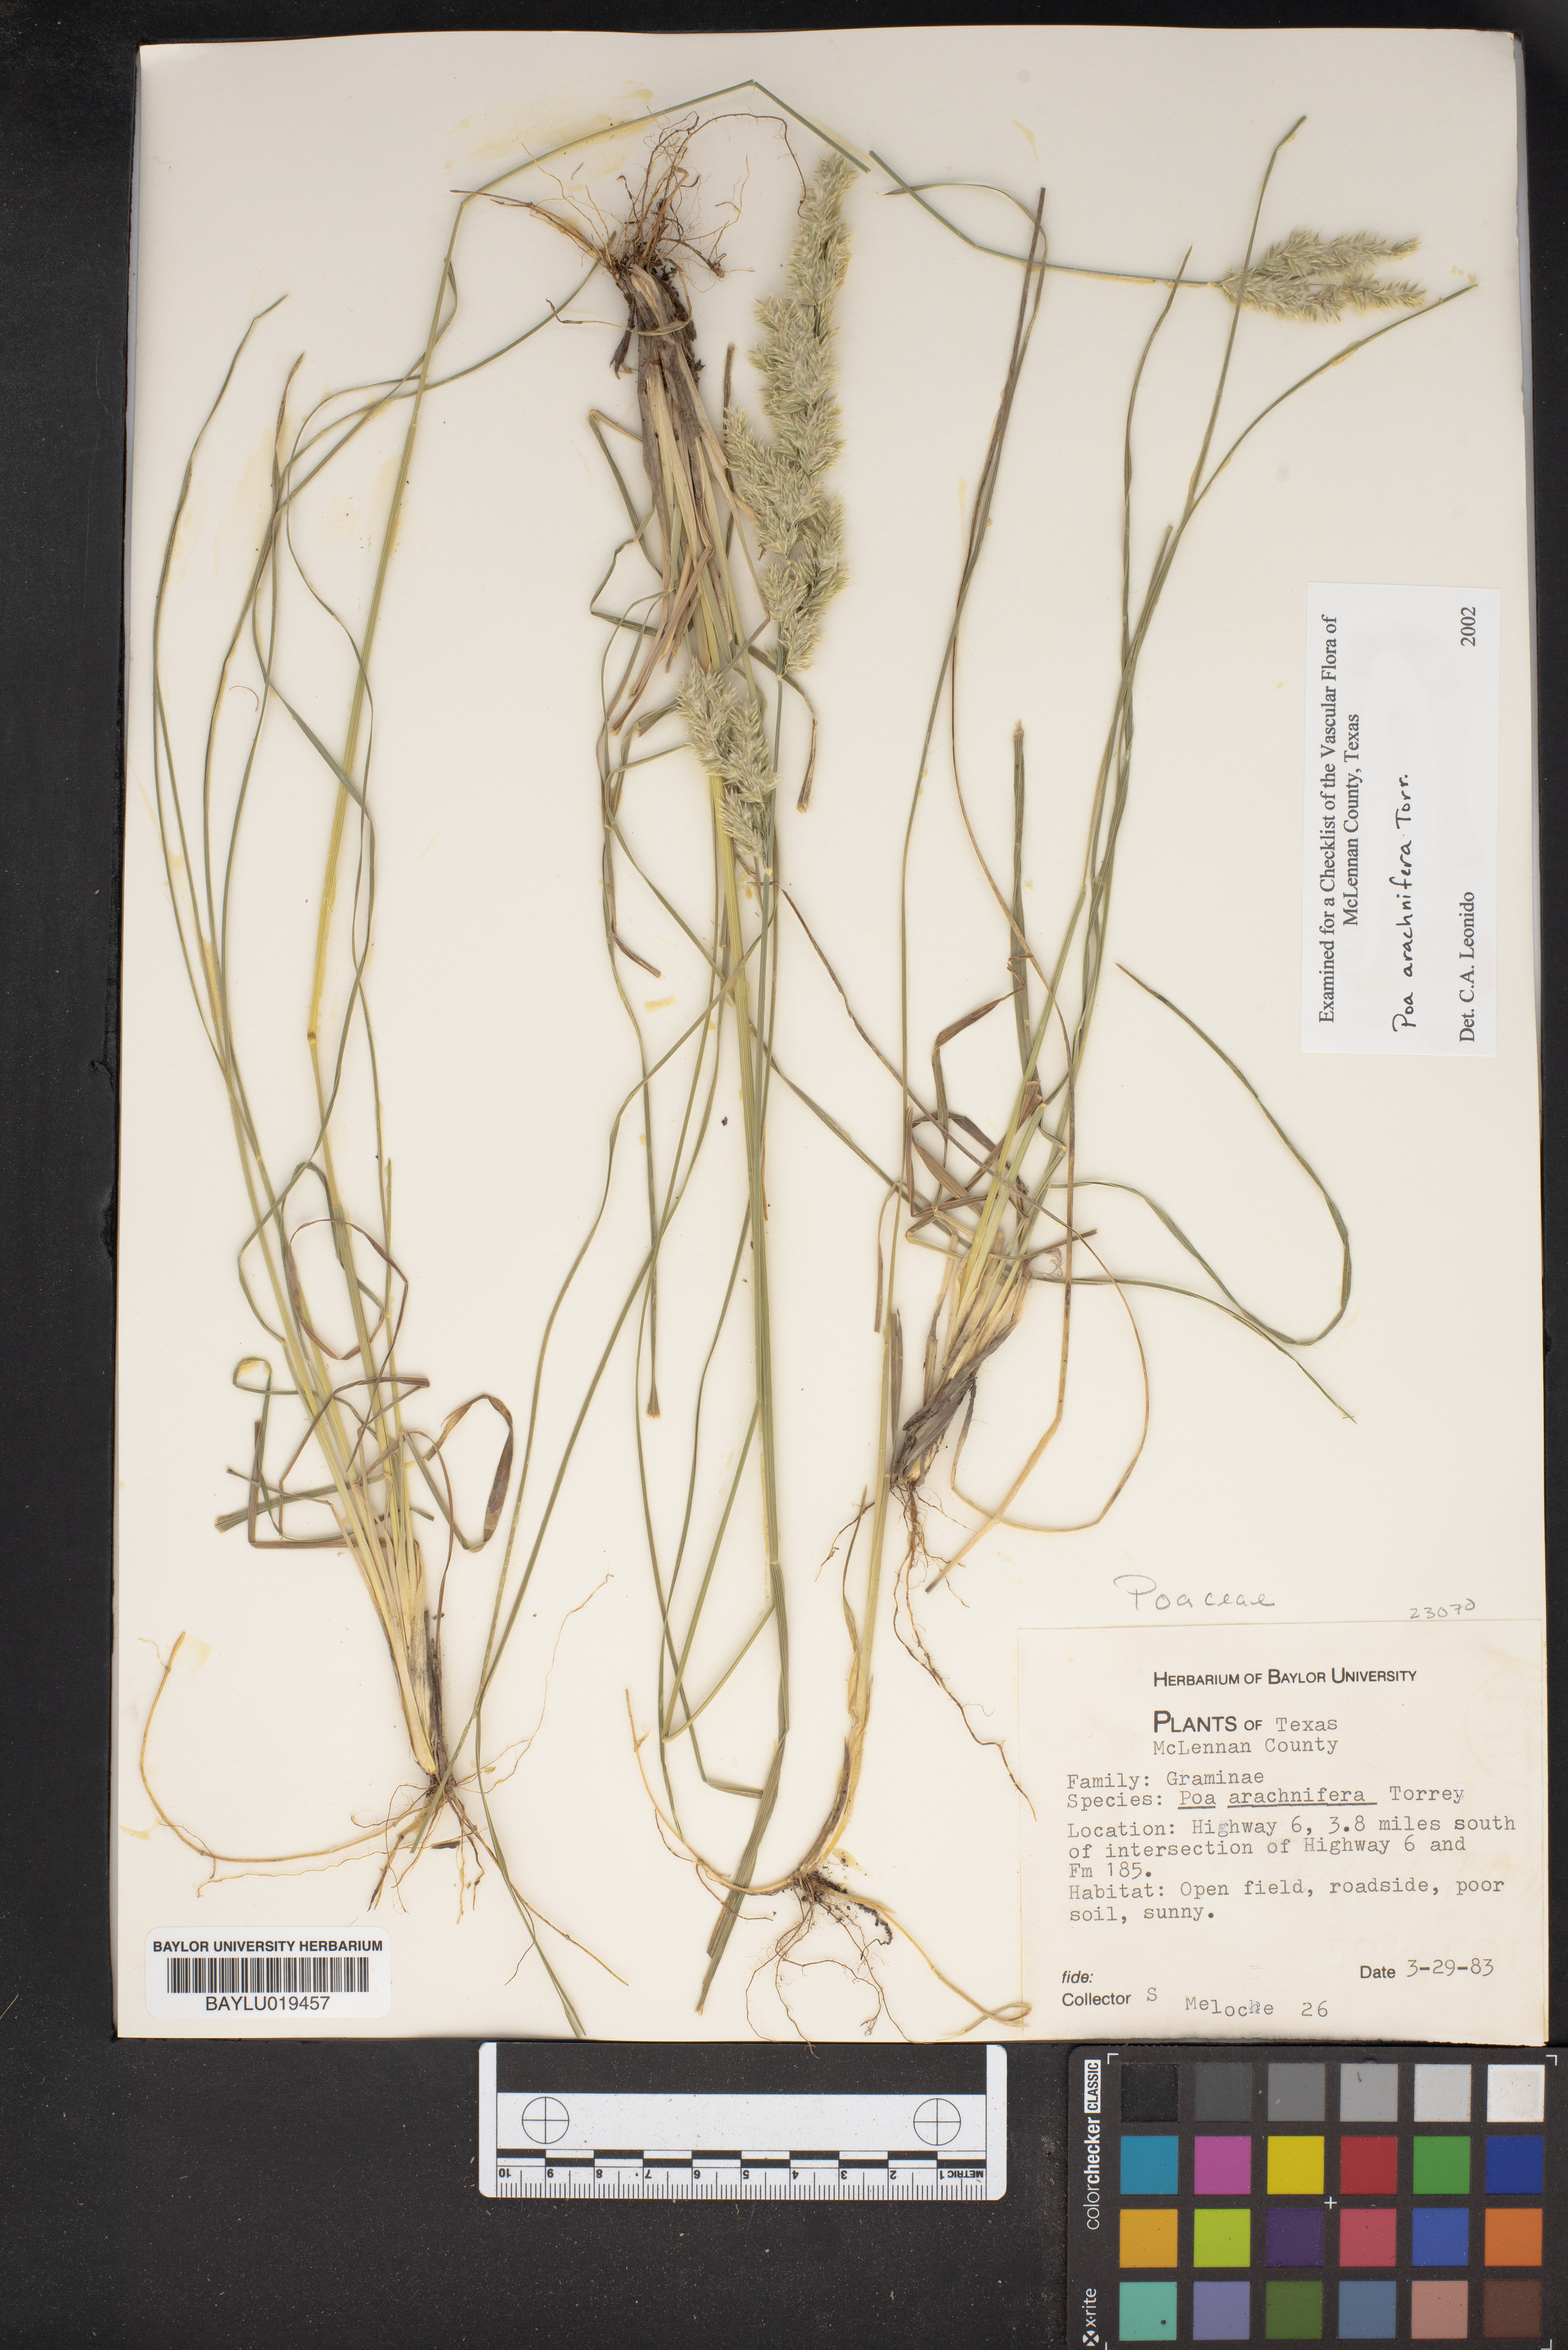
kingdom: Plantae
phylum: Tracheophyta
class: Liliopsida
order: Poales
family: Poaceae
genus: Poa
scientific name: Poa arachnifera
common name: Texas bluegrass
